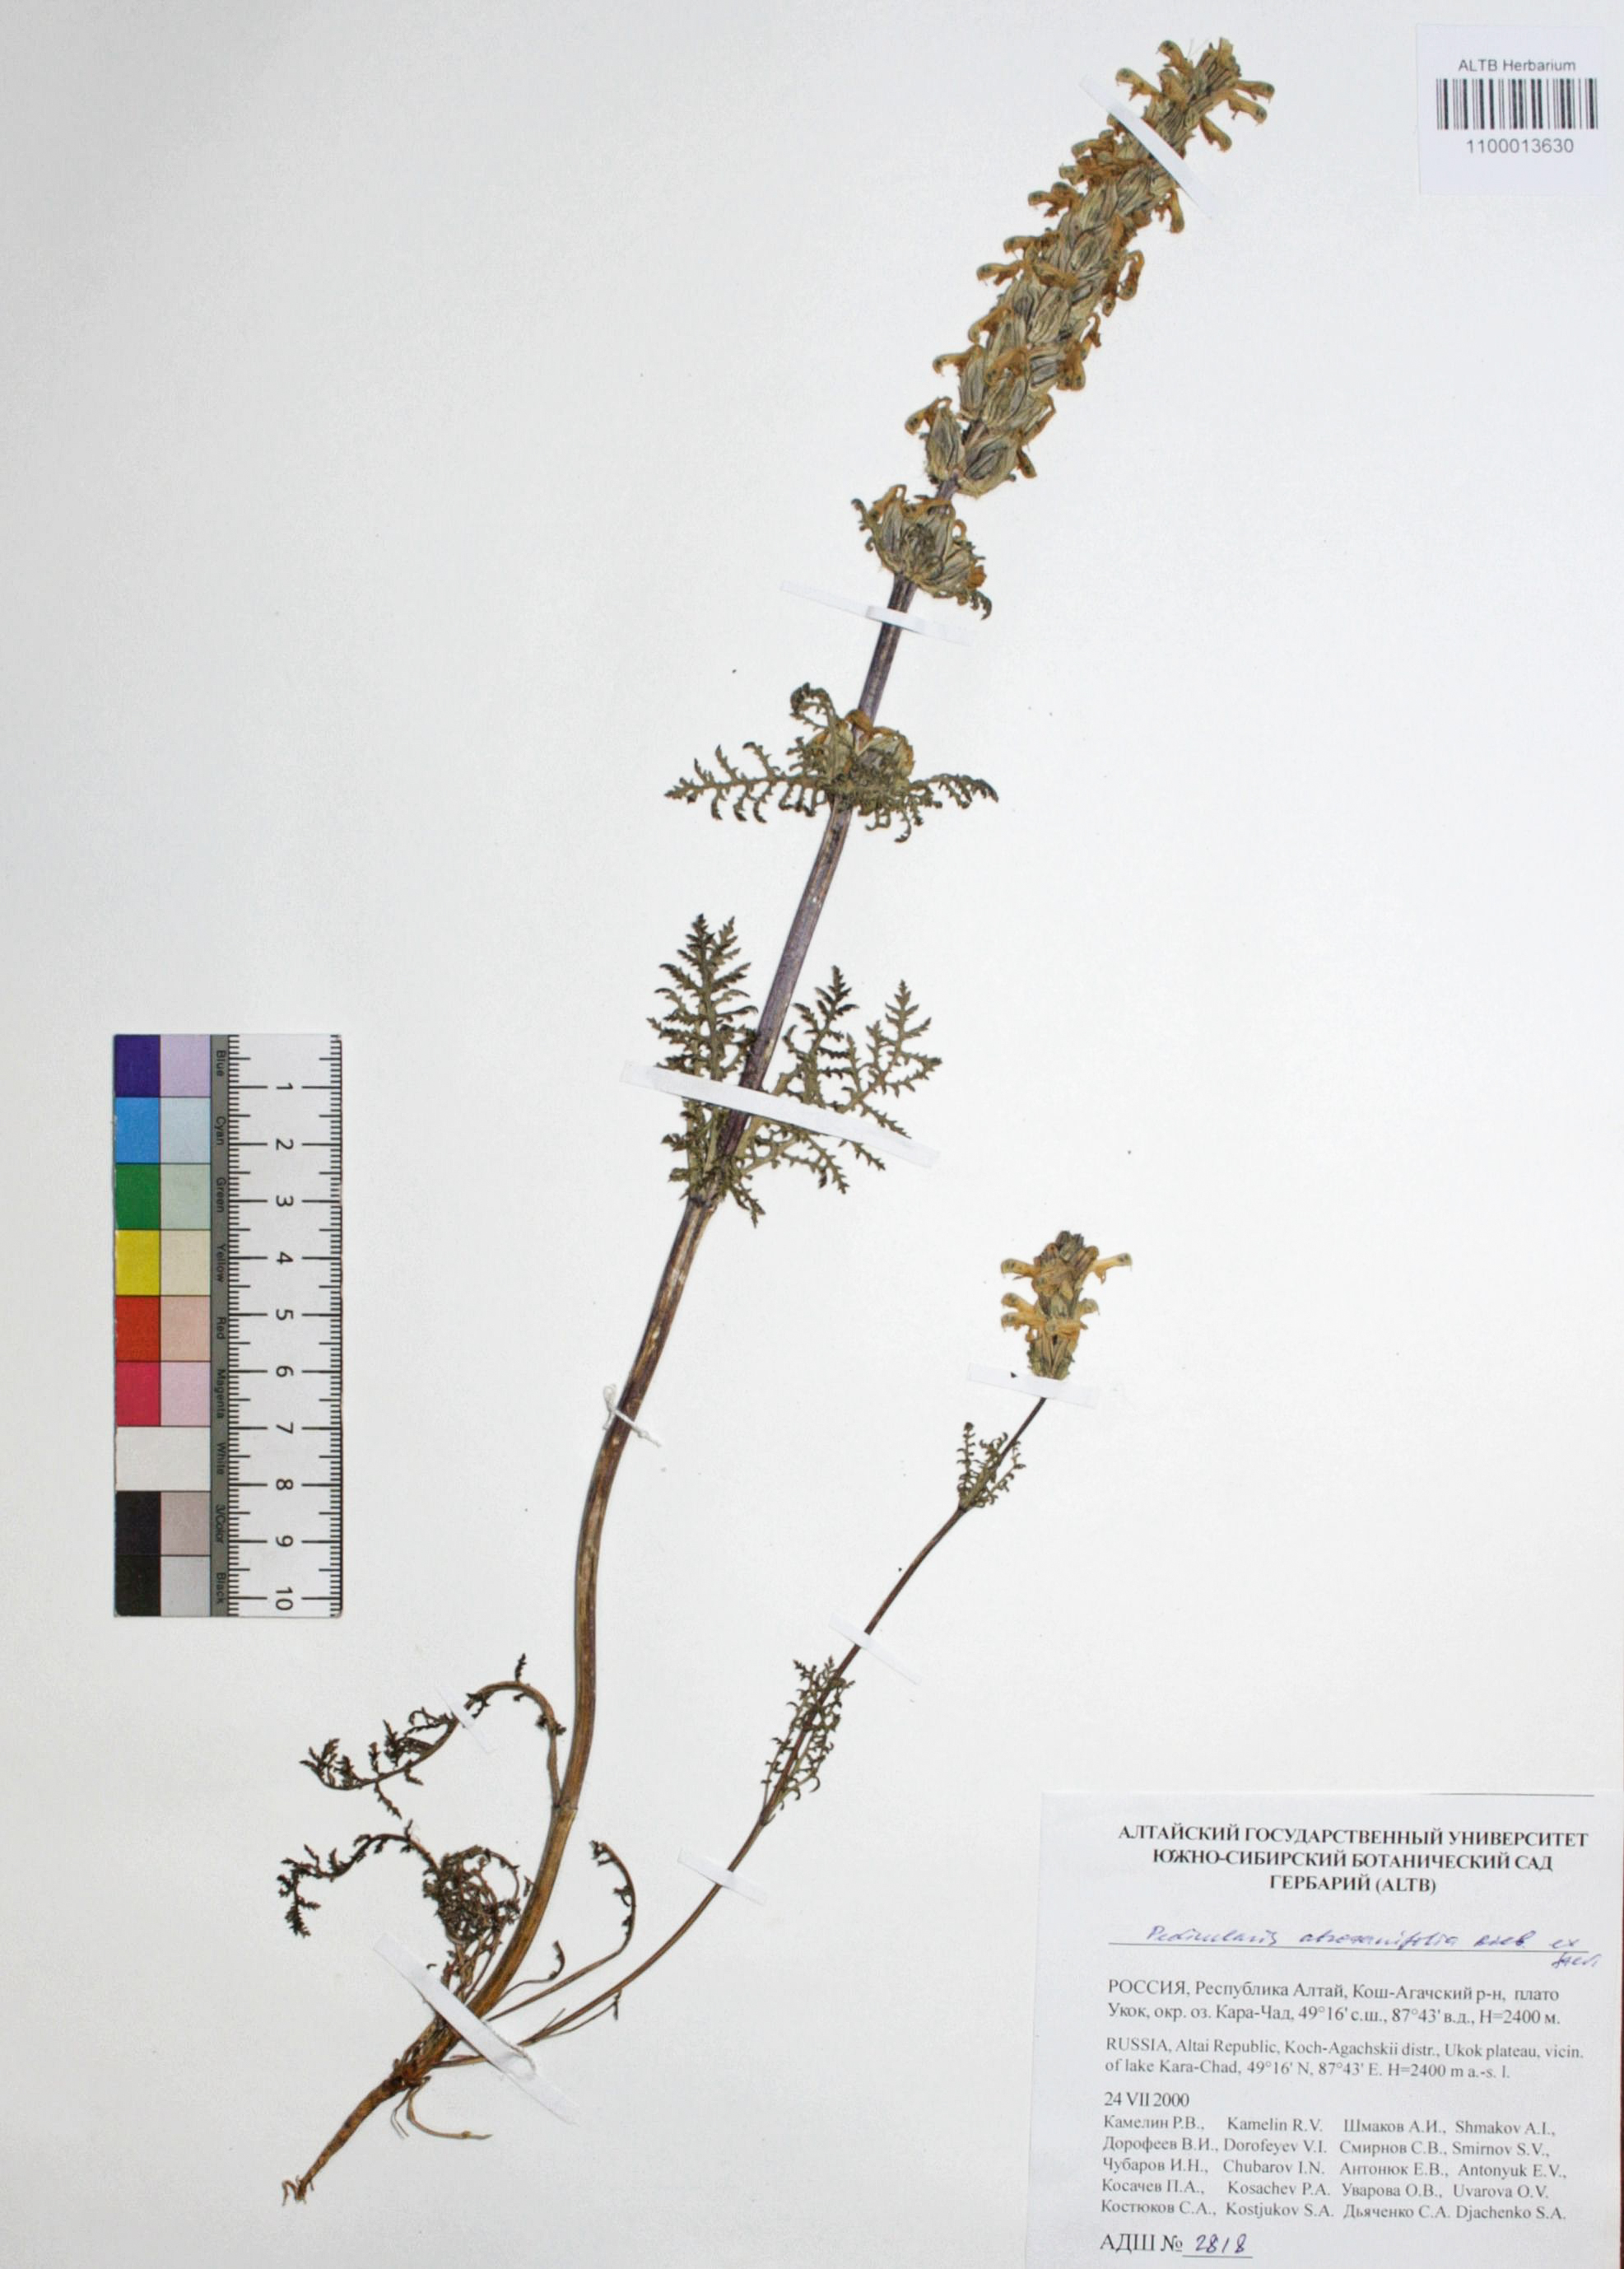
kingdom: Plantae
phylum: Tracheophyta
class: Magnoliopsida
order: Lamiales
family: Orobanchaceae
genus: Pedicularis
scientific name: Pedicularis abrotanifolia
